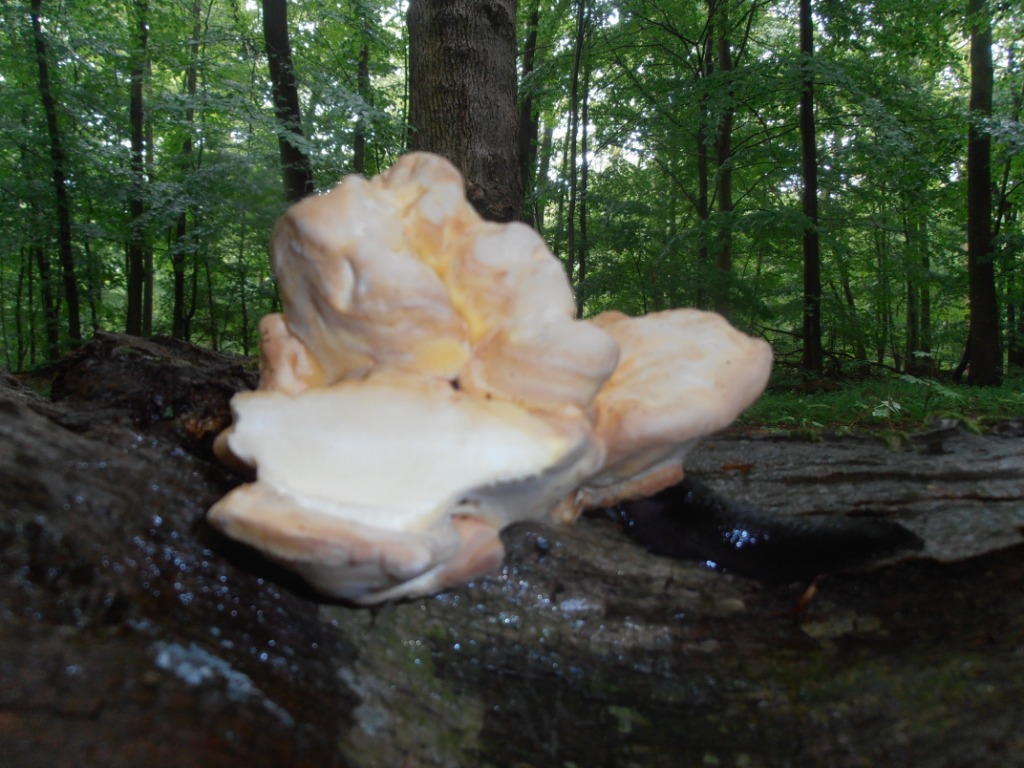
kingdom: Fungi
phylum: Basidiomycota
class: Agaricomycetes
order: Polyporales
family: Laetiporaceae
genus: Laetiporus
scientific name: Laetiporus sulphureus
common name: svovlporesvamp
